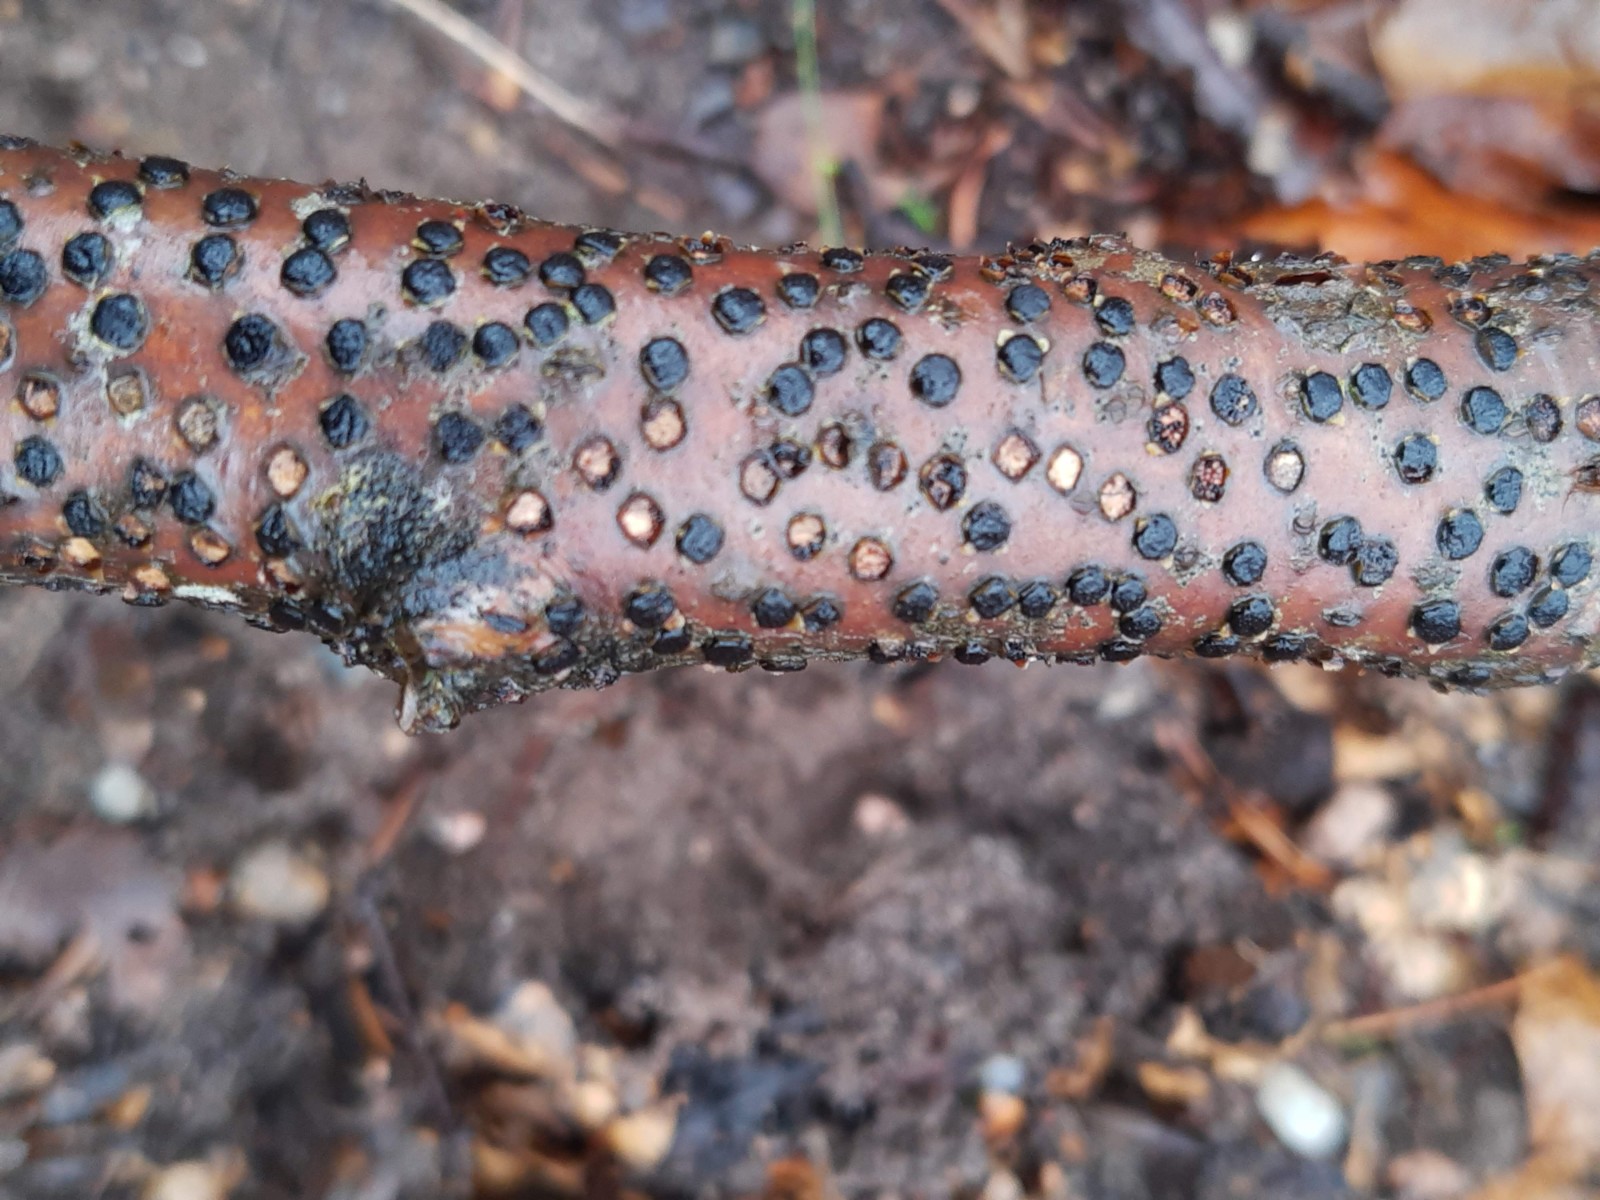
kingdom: Fungi
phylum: Ascomycota
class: Sordariomycetes
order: Xylariales
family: Diatrypaceae
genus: Diatrype
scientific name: Diatrype disciformis
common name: kant-kulskorpe
